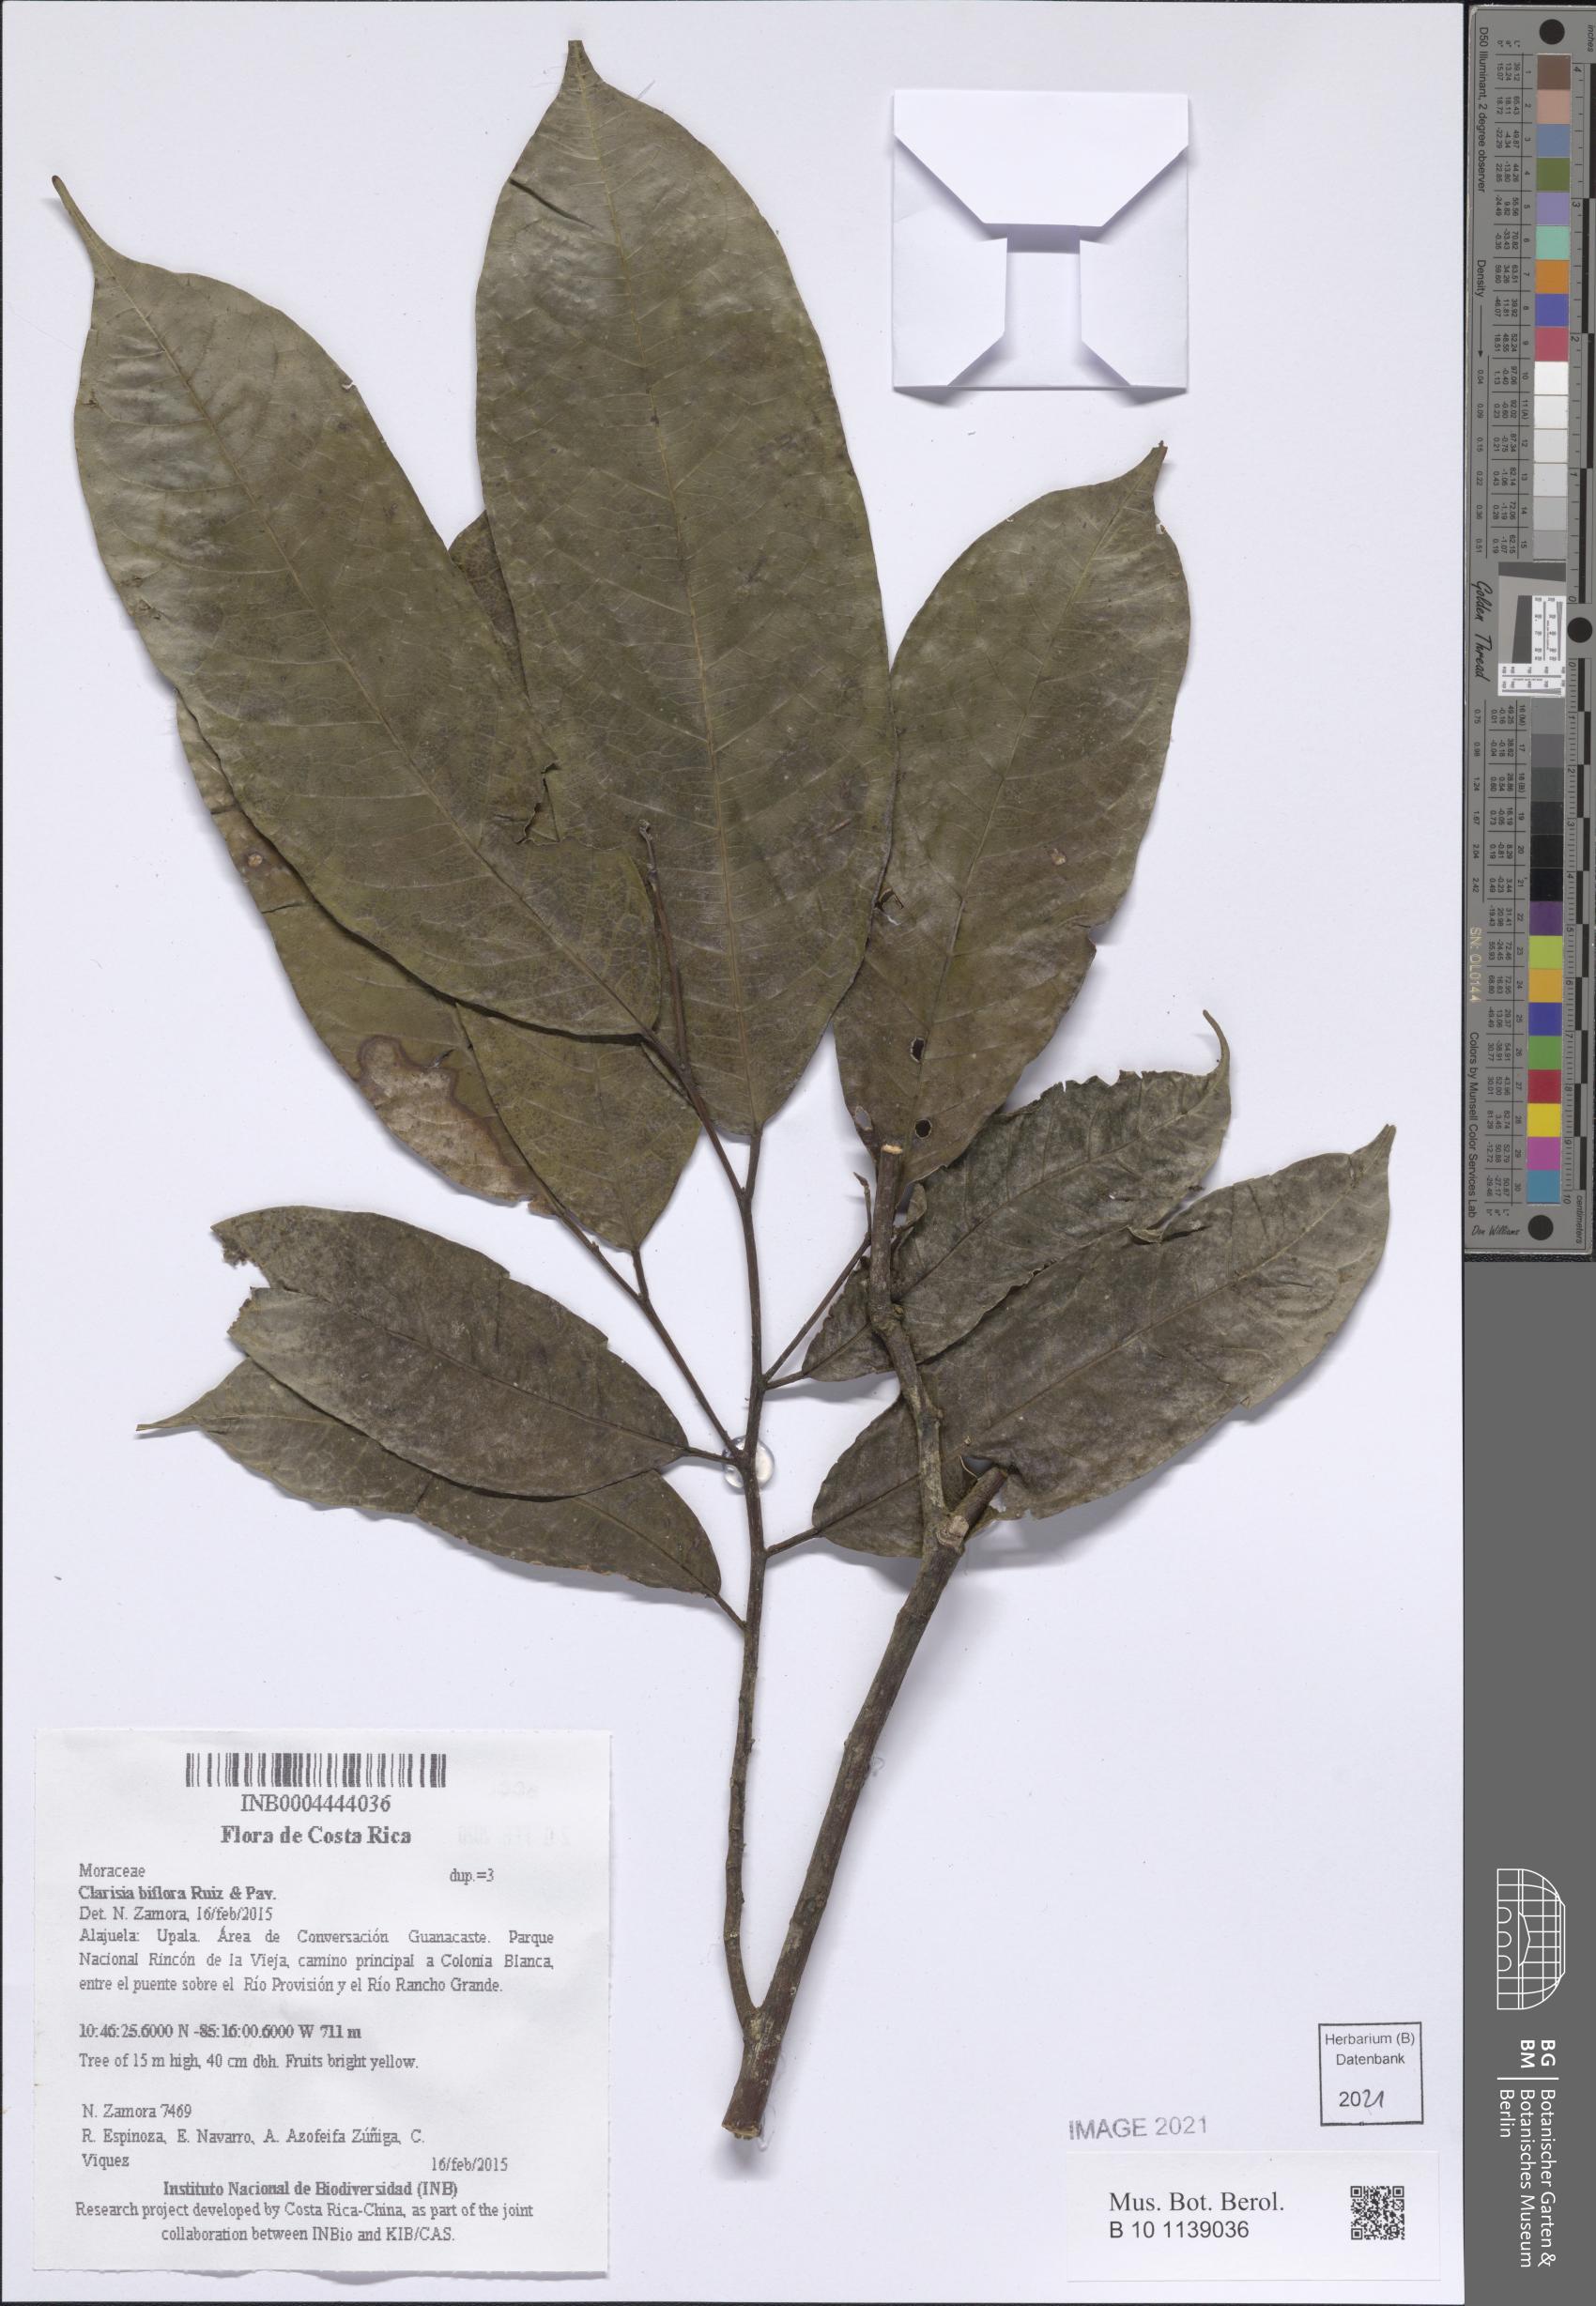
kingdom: Plantae
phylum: Tracheophyta
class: Magnoliopsida
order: Rosales
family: Moraceae
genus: Clarisia
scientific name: Clarisia biflora
